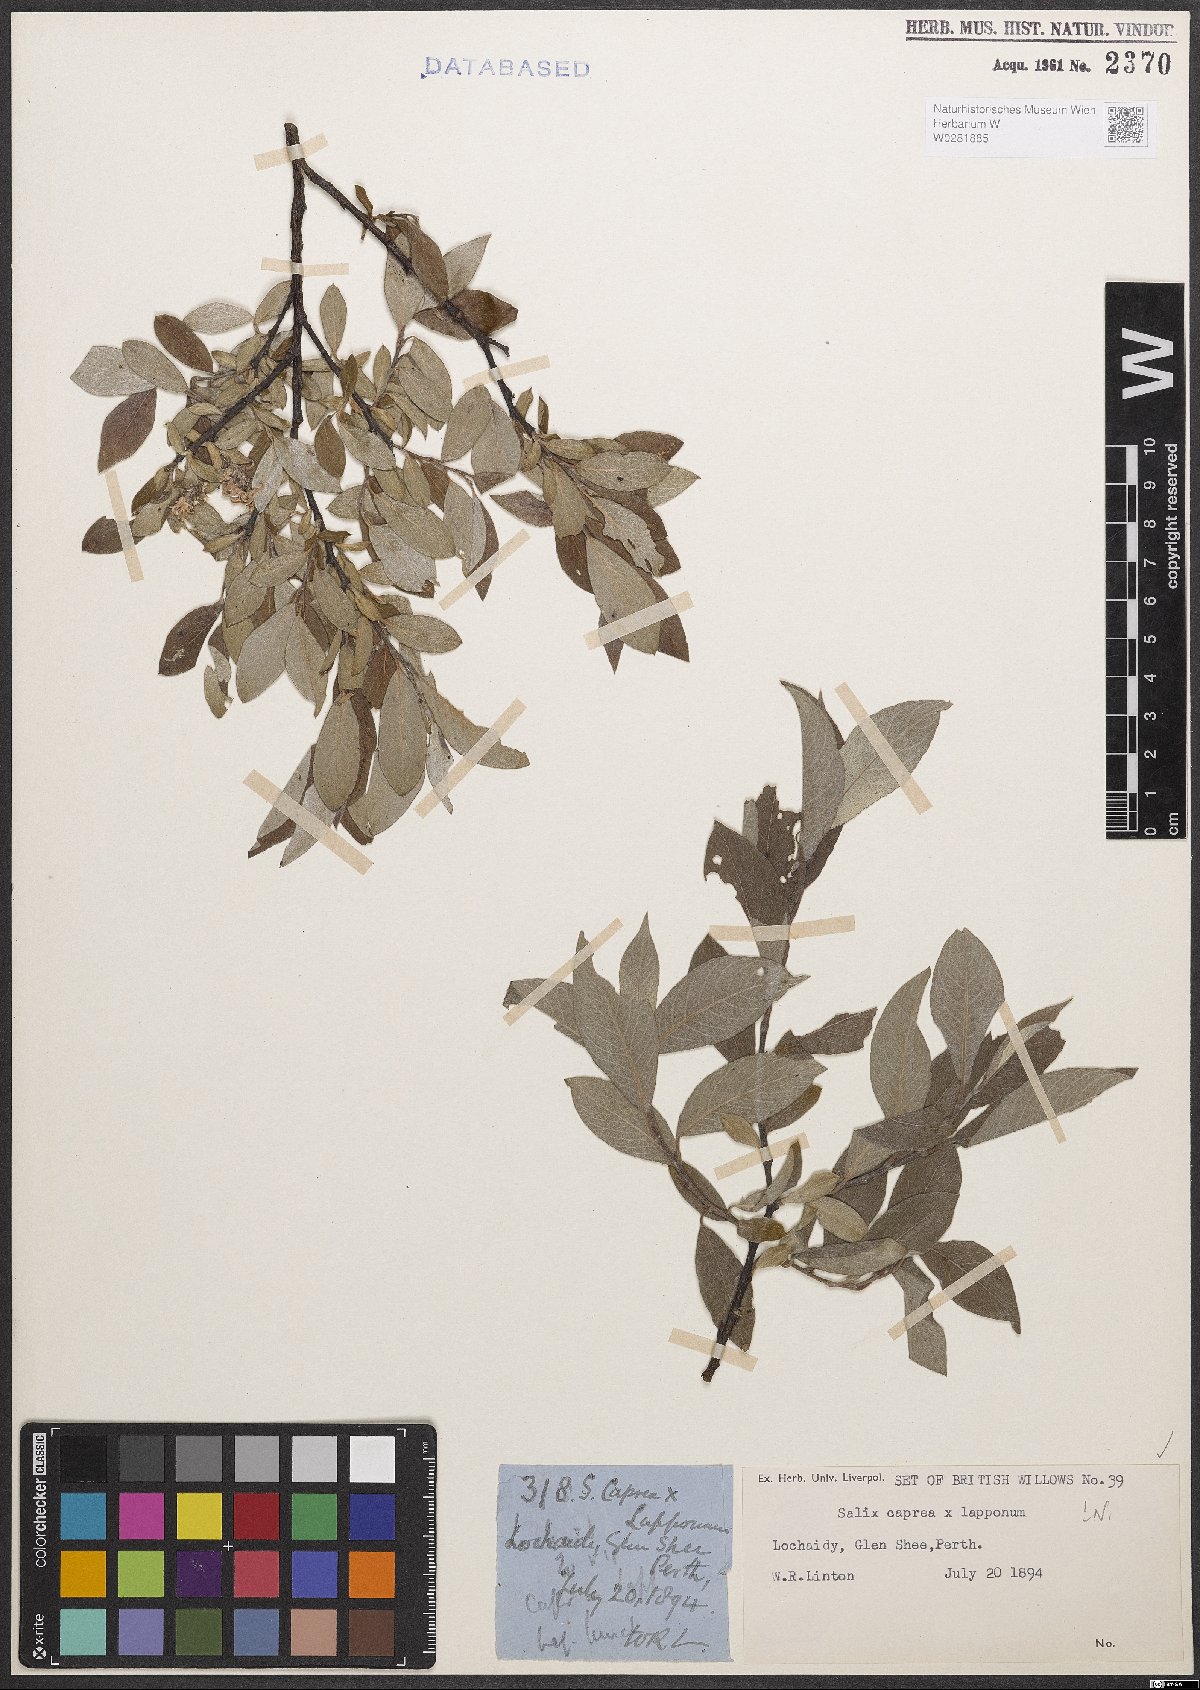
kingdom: Plantae
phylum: Tracheophyta
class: Magnoliopsida
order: Malpighiales
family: Salicaceae
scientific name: Salicaceae
